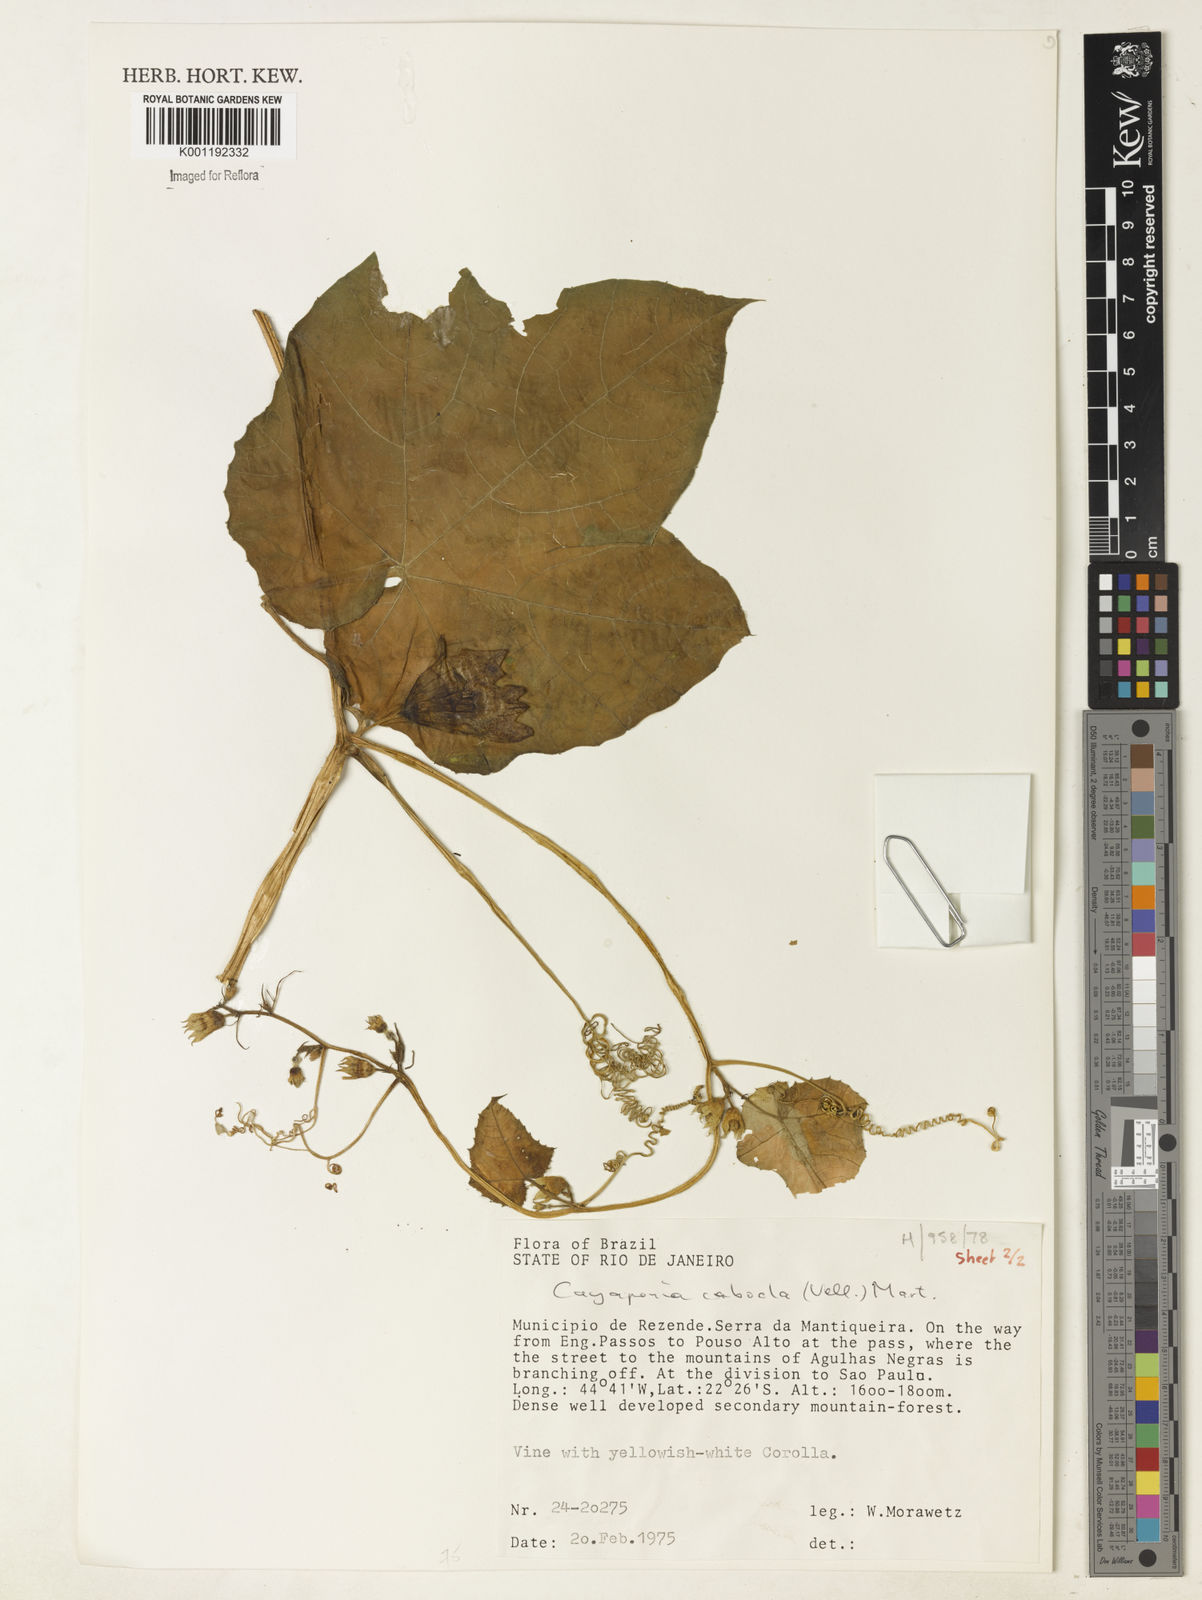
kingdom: Plantae
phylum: Tracheophyta
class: Magnoliopsida
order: Cucurbitales
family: Cucurbitaceae
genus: Cayaponia
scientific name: Cayaponia cabocla
